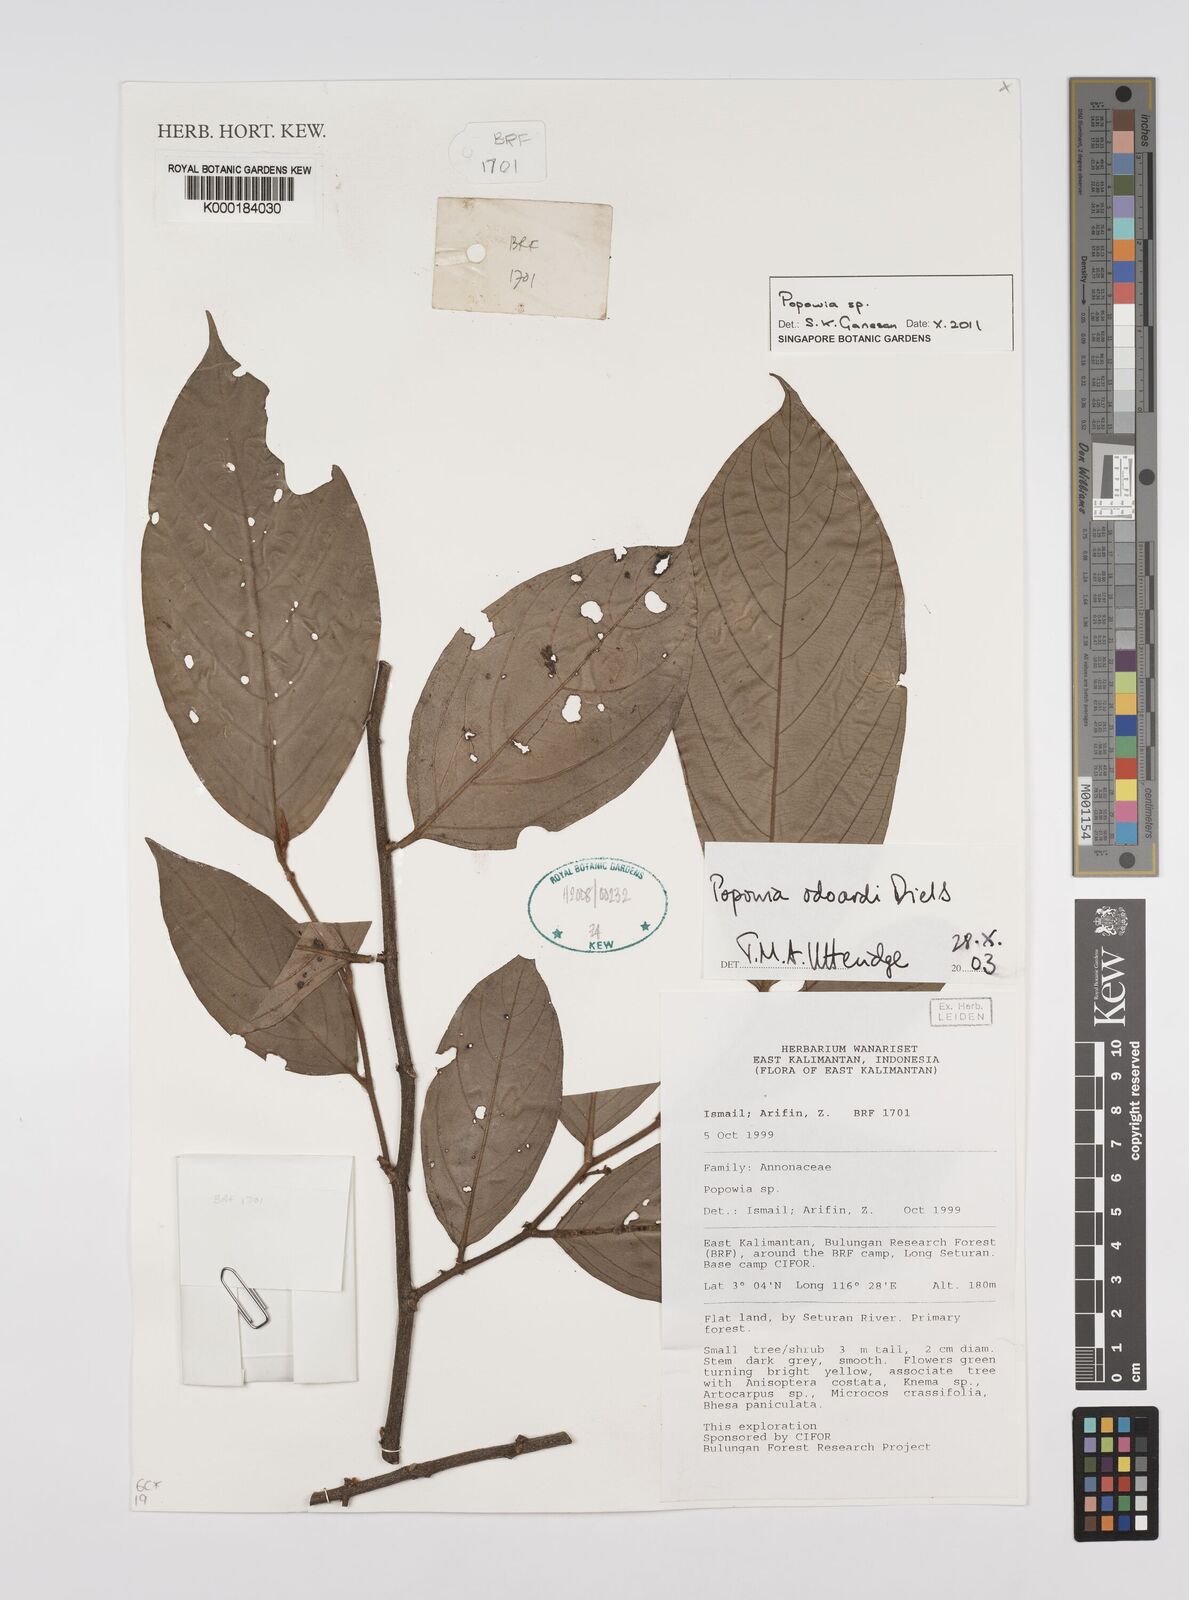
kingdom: Plantae
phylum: Tracheophyta
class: Magnoliopsida
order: Magnoliales
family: Annonaceae
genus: Popowia
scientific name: Popowia
